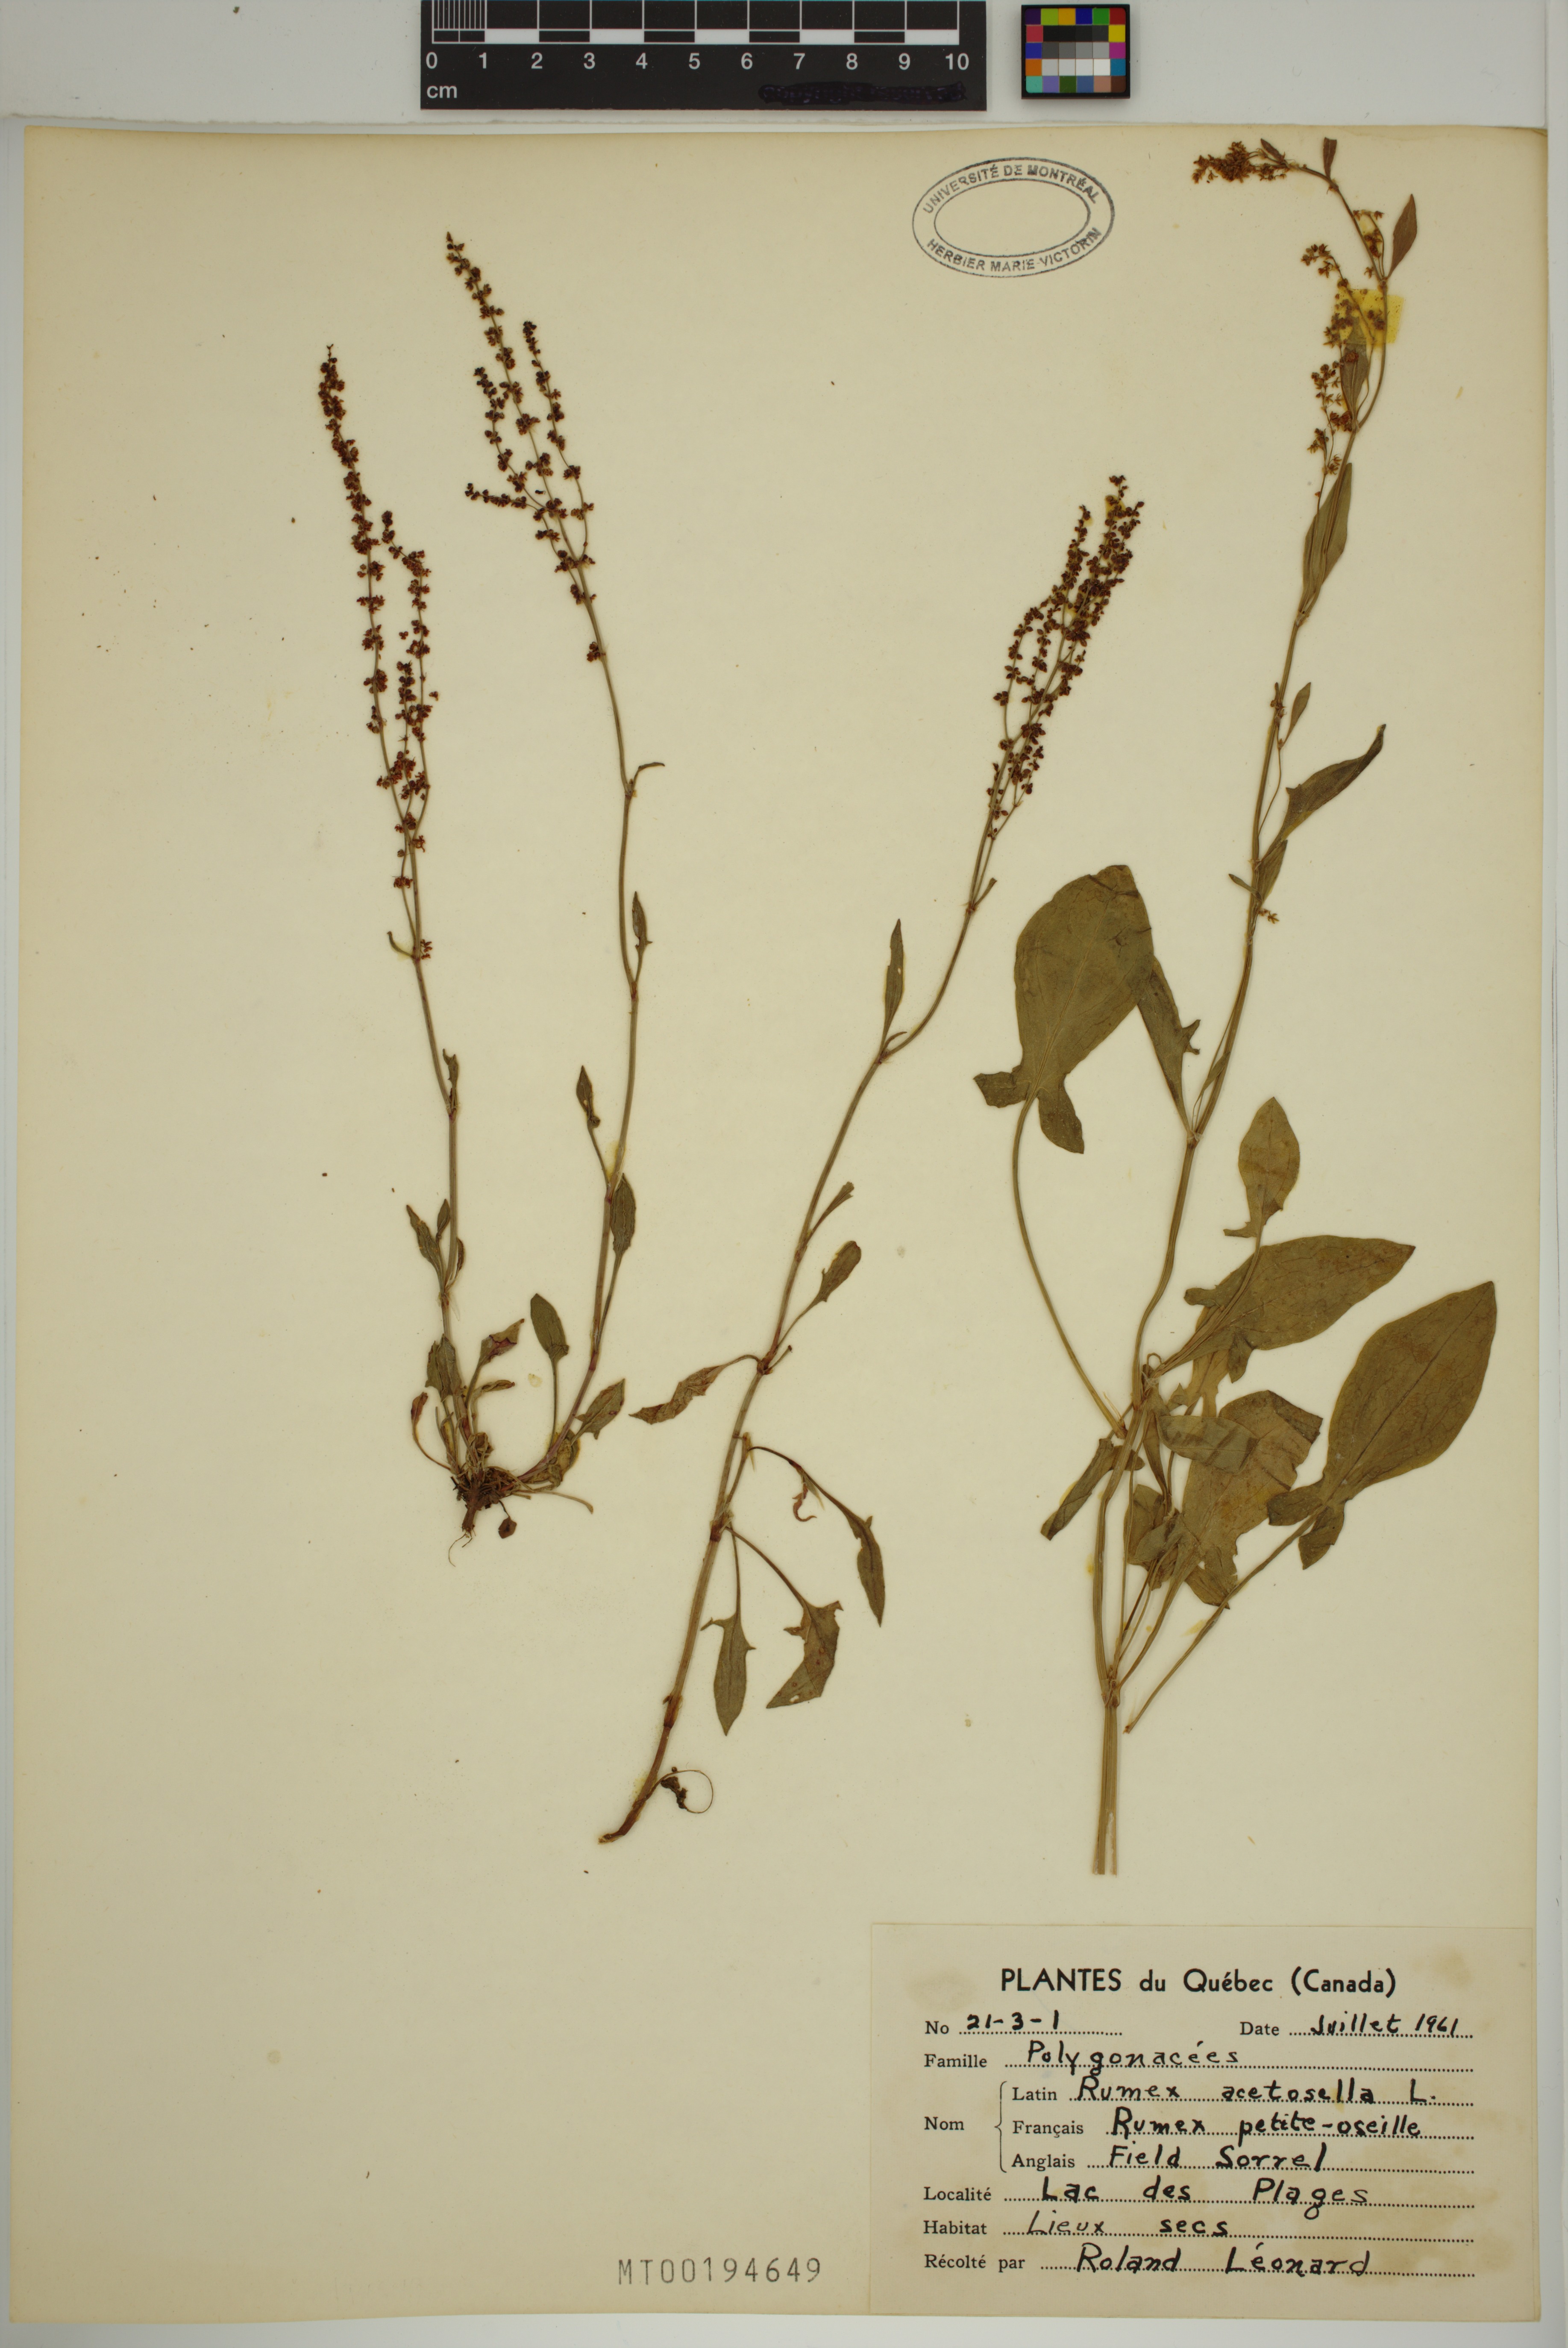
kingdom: Plantae
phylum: Tracheophyta
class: Magnoliopsida
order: Caryophyllales
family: Polygonaceae
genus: Rumex
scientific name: Rumex acetosella
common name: Common sheep sorrel
